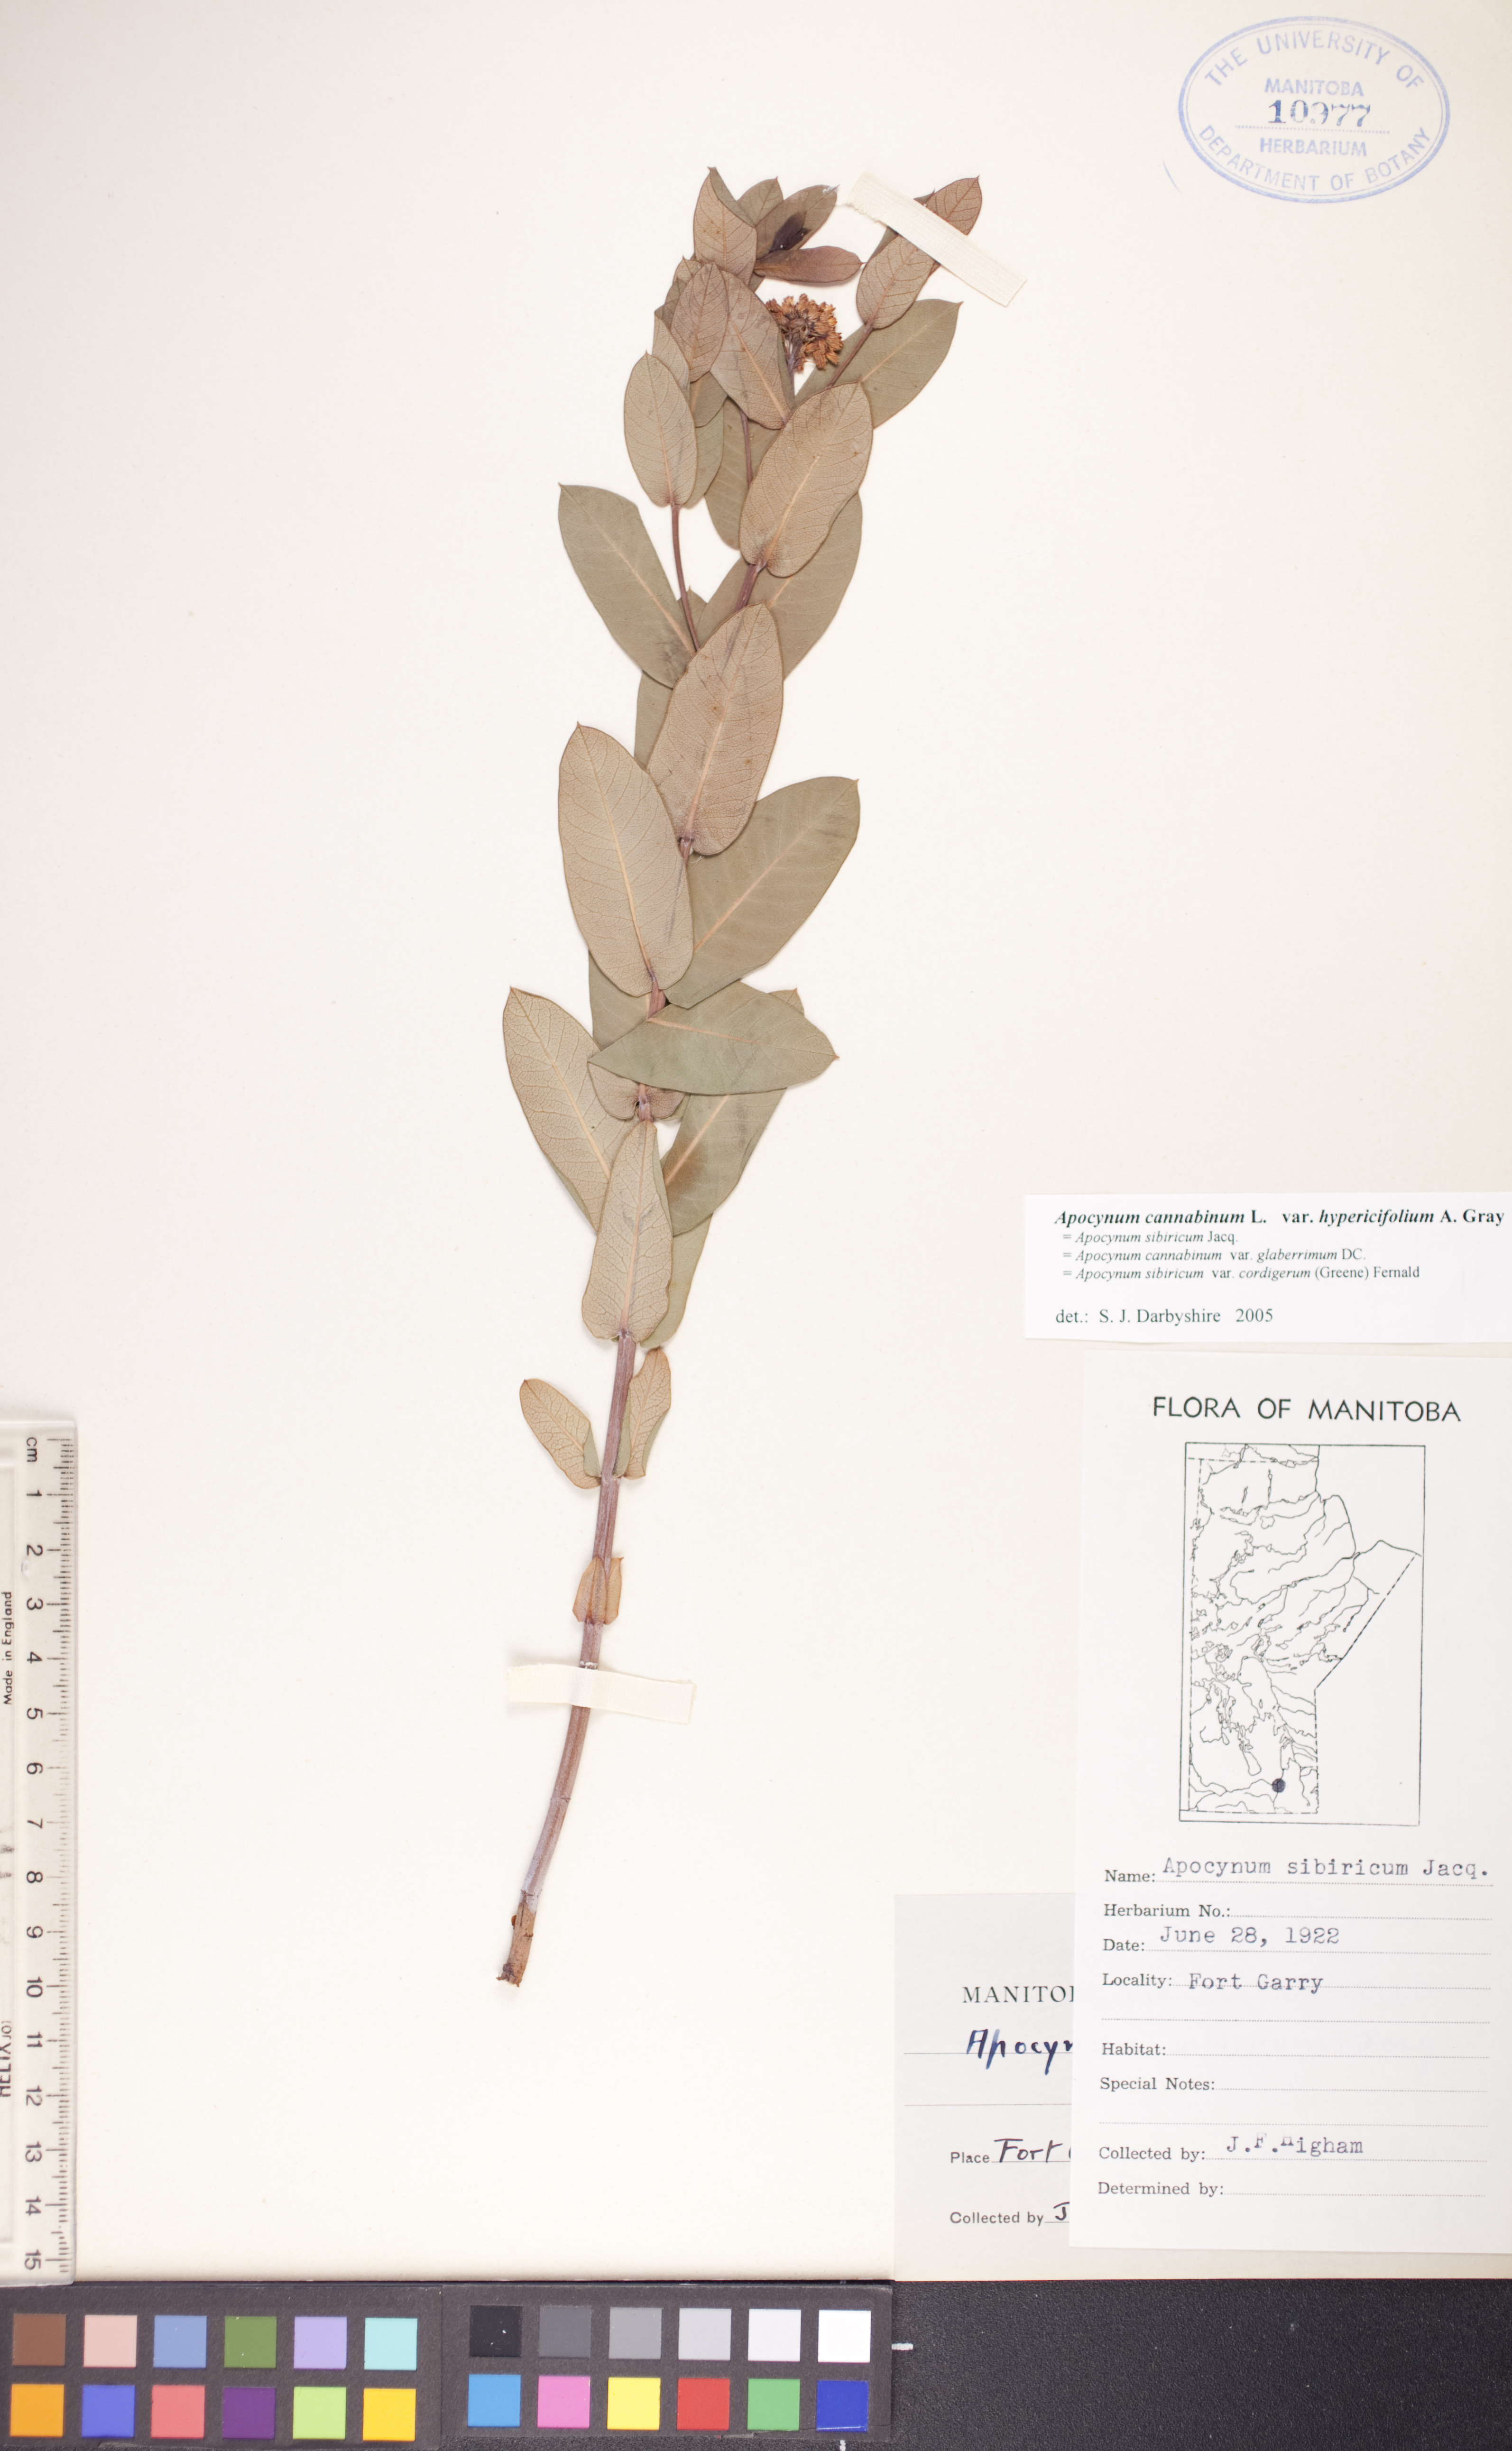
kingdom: Plantae
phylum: Tracheophyta
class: Magnoliopsida
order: Gentianales
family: Apocynaceae
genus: Apocynum
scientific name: Apocynum cannabinum
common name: Hemp dogbane
